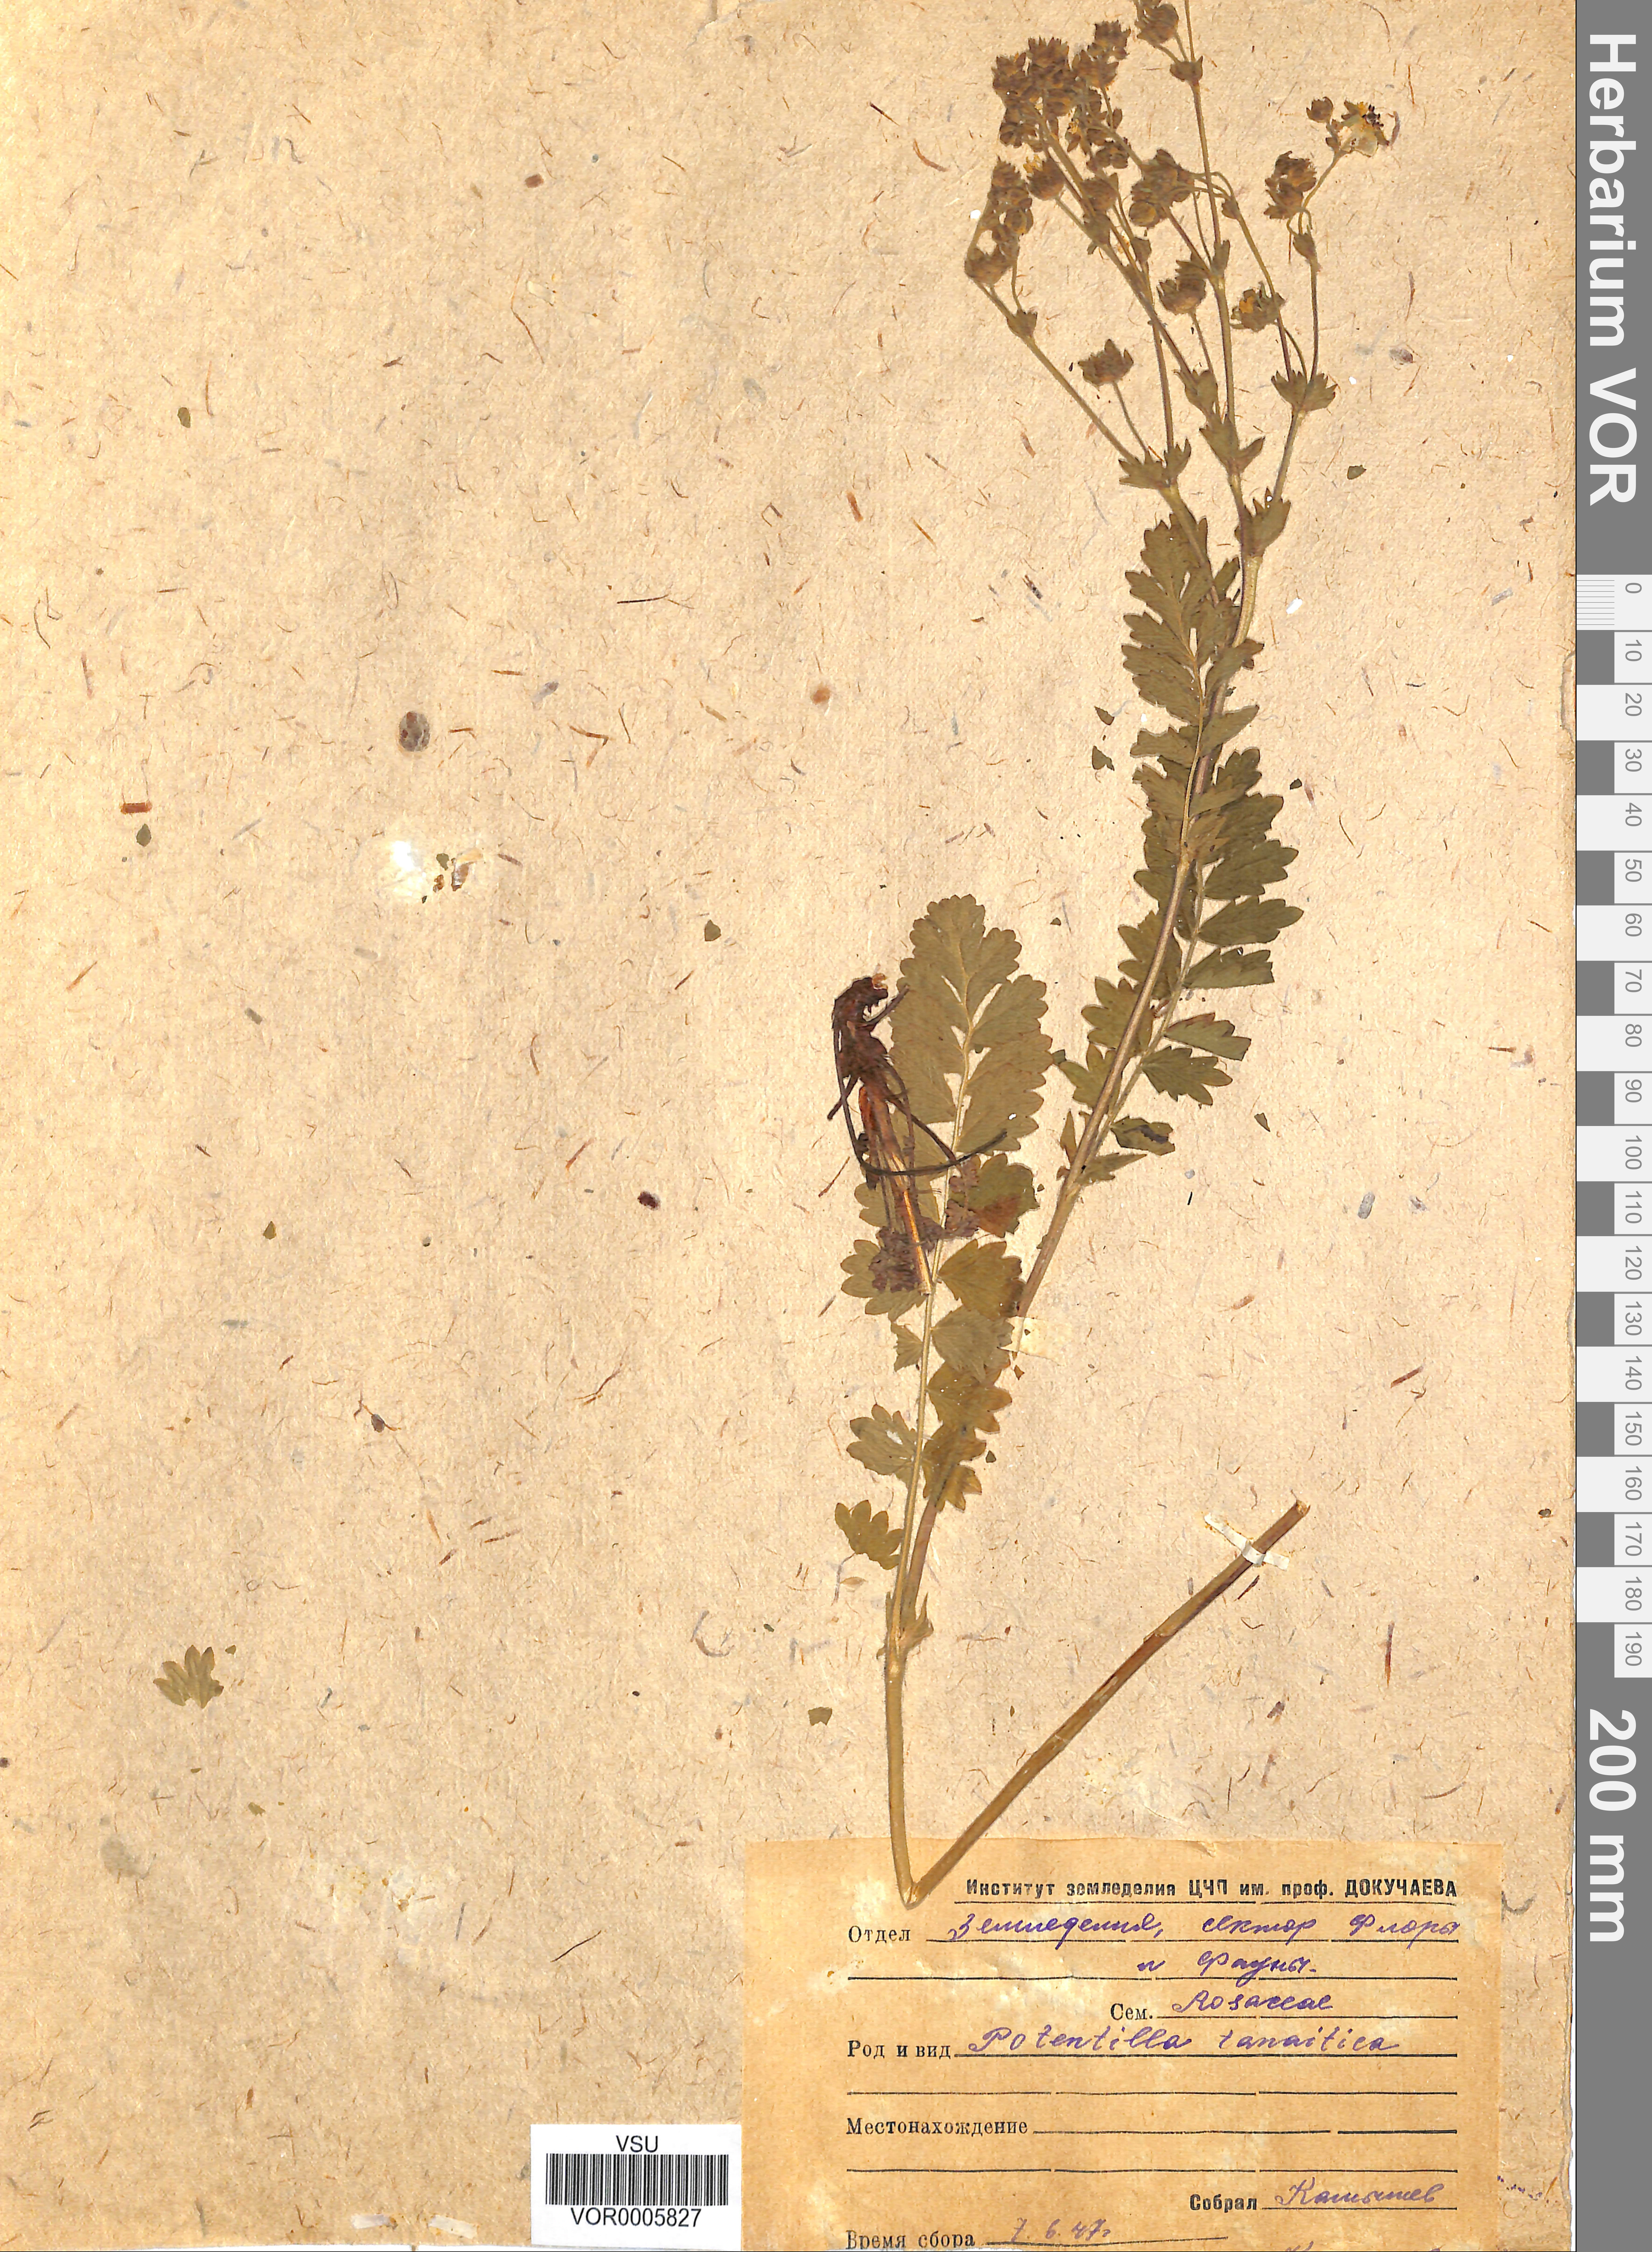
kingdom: Plantae
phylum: Tracheophyta
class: Magnoliopsida
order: Rosales
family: Rosaceae
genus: Potentilla
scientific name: Potentilla tanaitica
